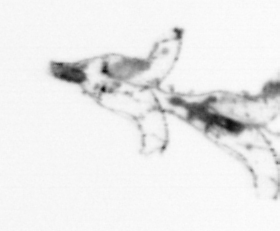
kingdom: Animalia
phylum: Cnidaria
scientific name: Cnidaria
